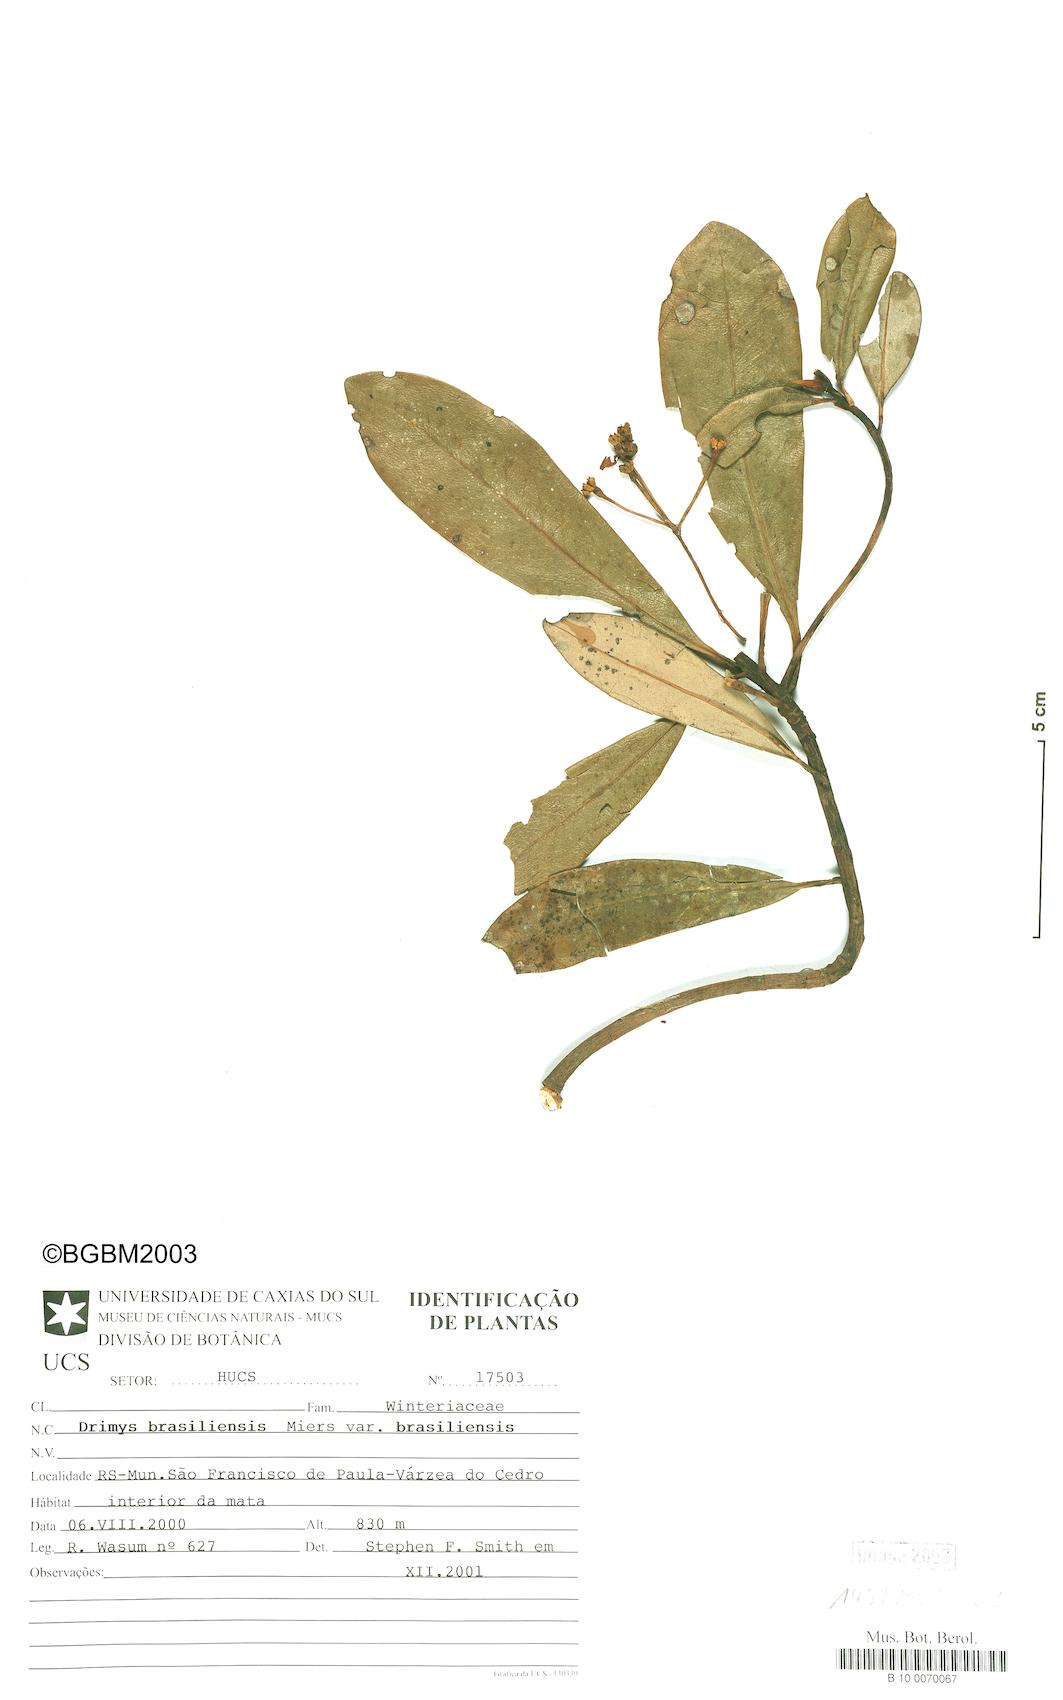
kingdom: Plantae
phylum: Tracheophyta
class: Magnoliopsida
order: Canellales
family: Winteraceae
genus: Drimys
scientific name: Drimys brasiliensis
